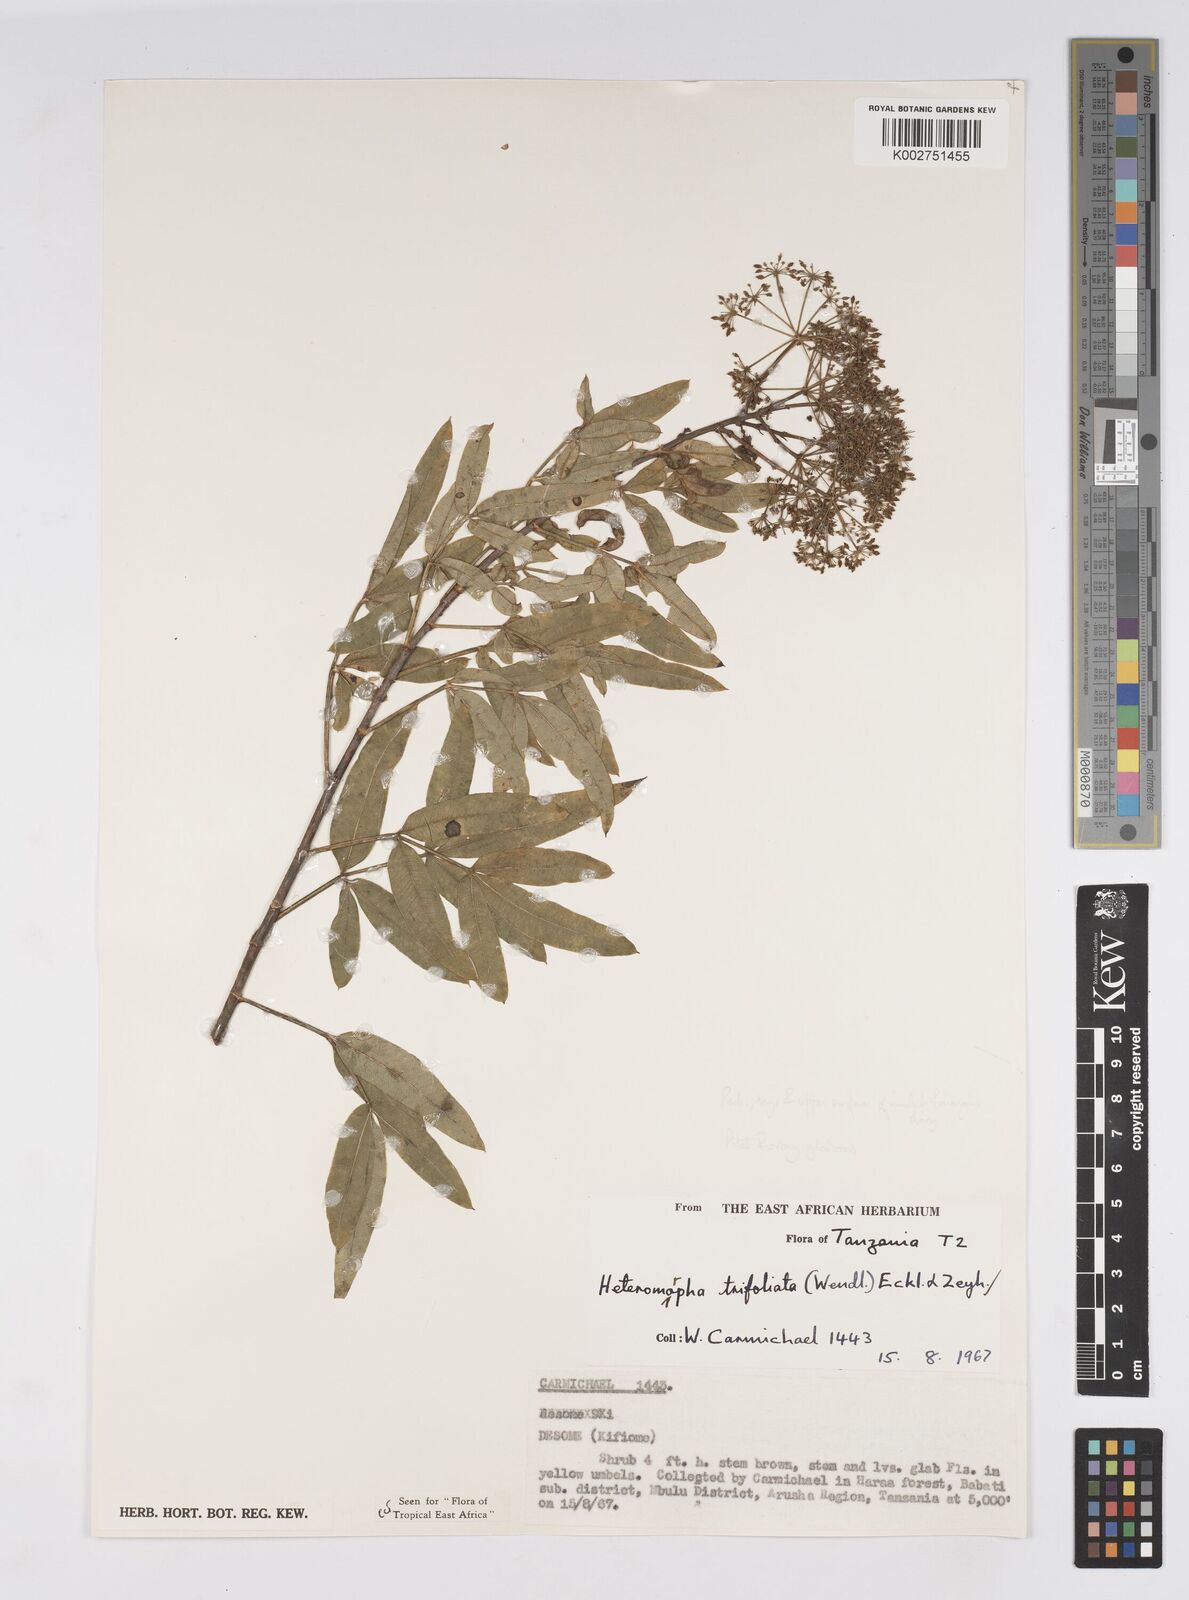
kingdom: Plantae
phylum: Tracheophyta
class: Magnoliopsida
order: Apiales
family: Apiaceae
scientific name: Apiaceae
